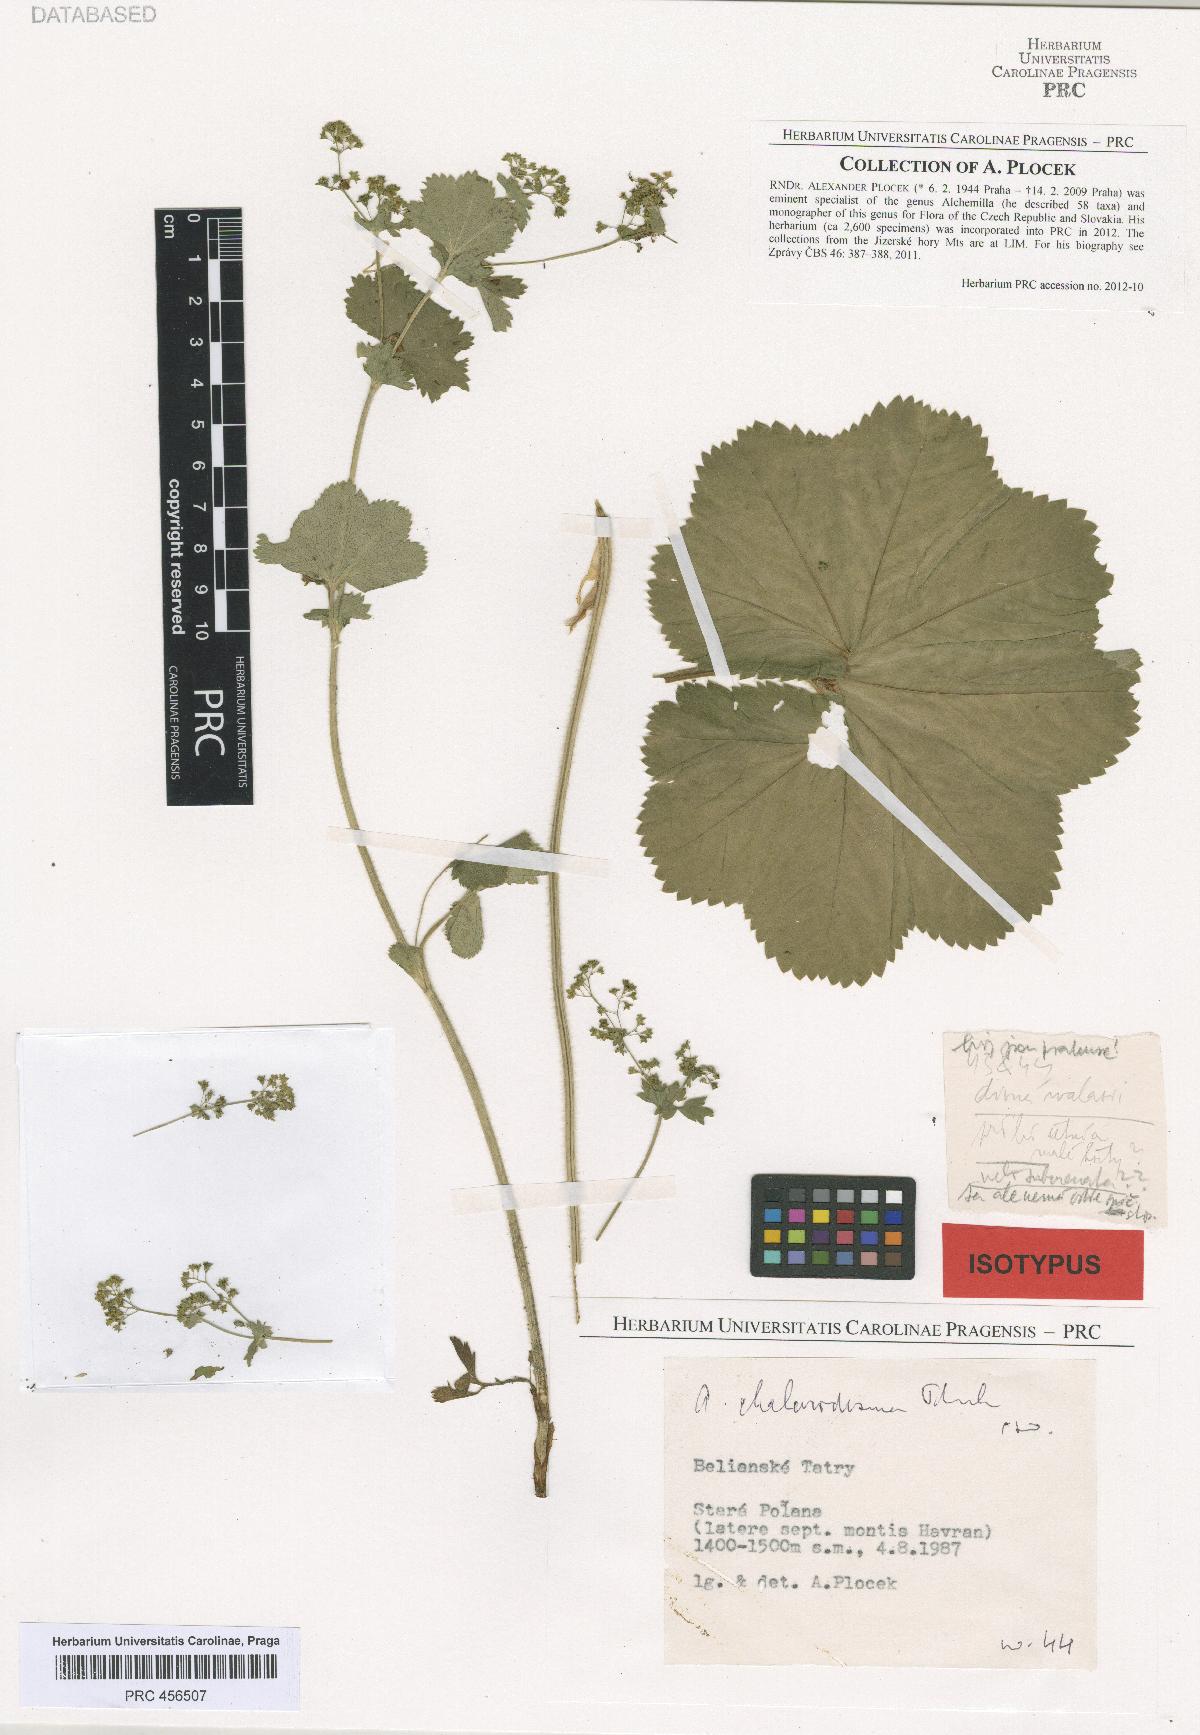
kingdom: Plantae
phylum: Tracheophyta
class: Magnoliopsida
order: Rosales
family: Rosaceae
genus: Alchemilla
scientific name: Alchemilla chalarodesma
